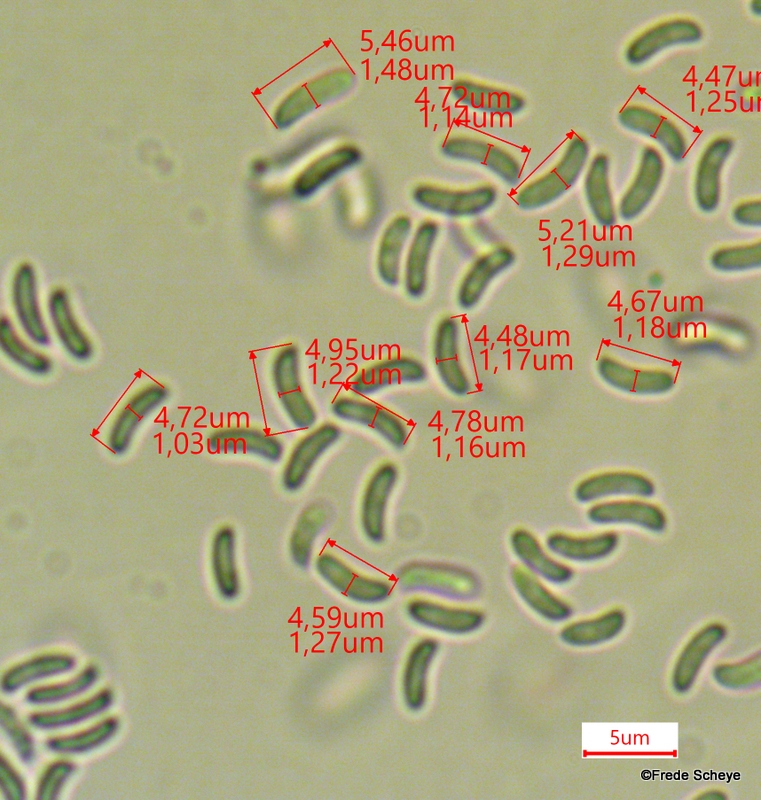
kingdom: Fungi
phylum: Basidiomycota
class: Agaricomycetes
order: Agaricales
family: Mycenaceae
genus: Panellus
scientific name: Panellus mitis
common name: mild epaulethat
